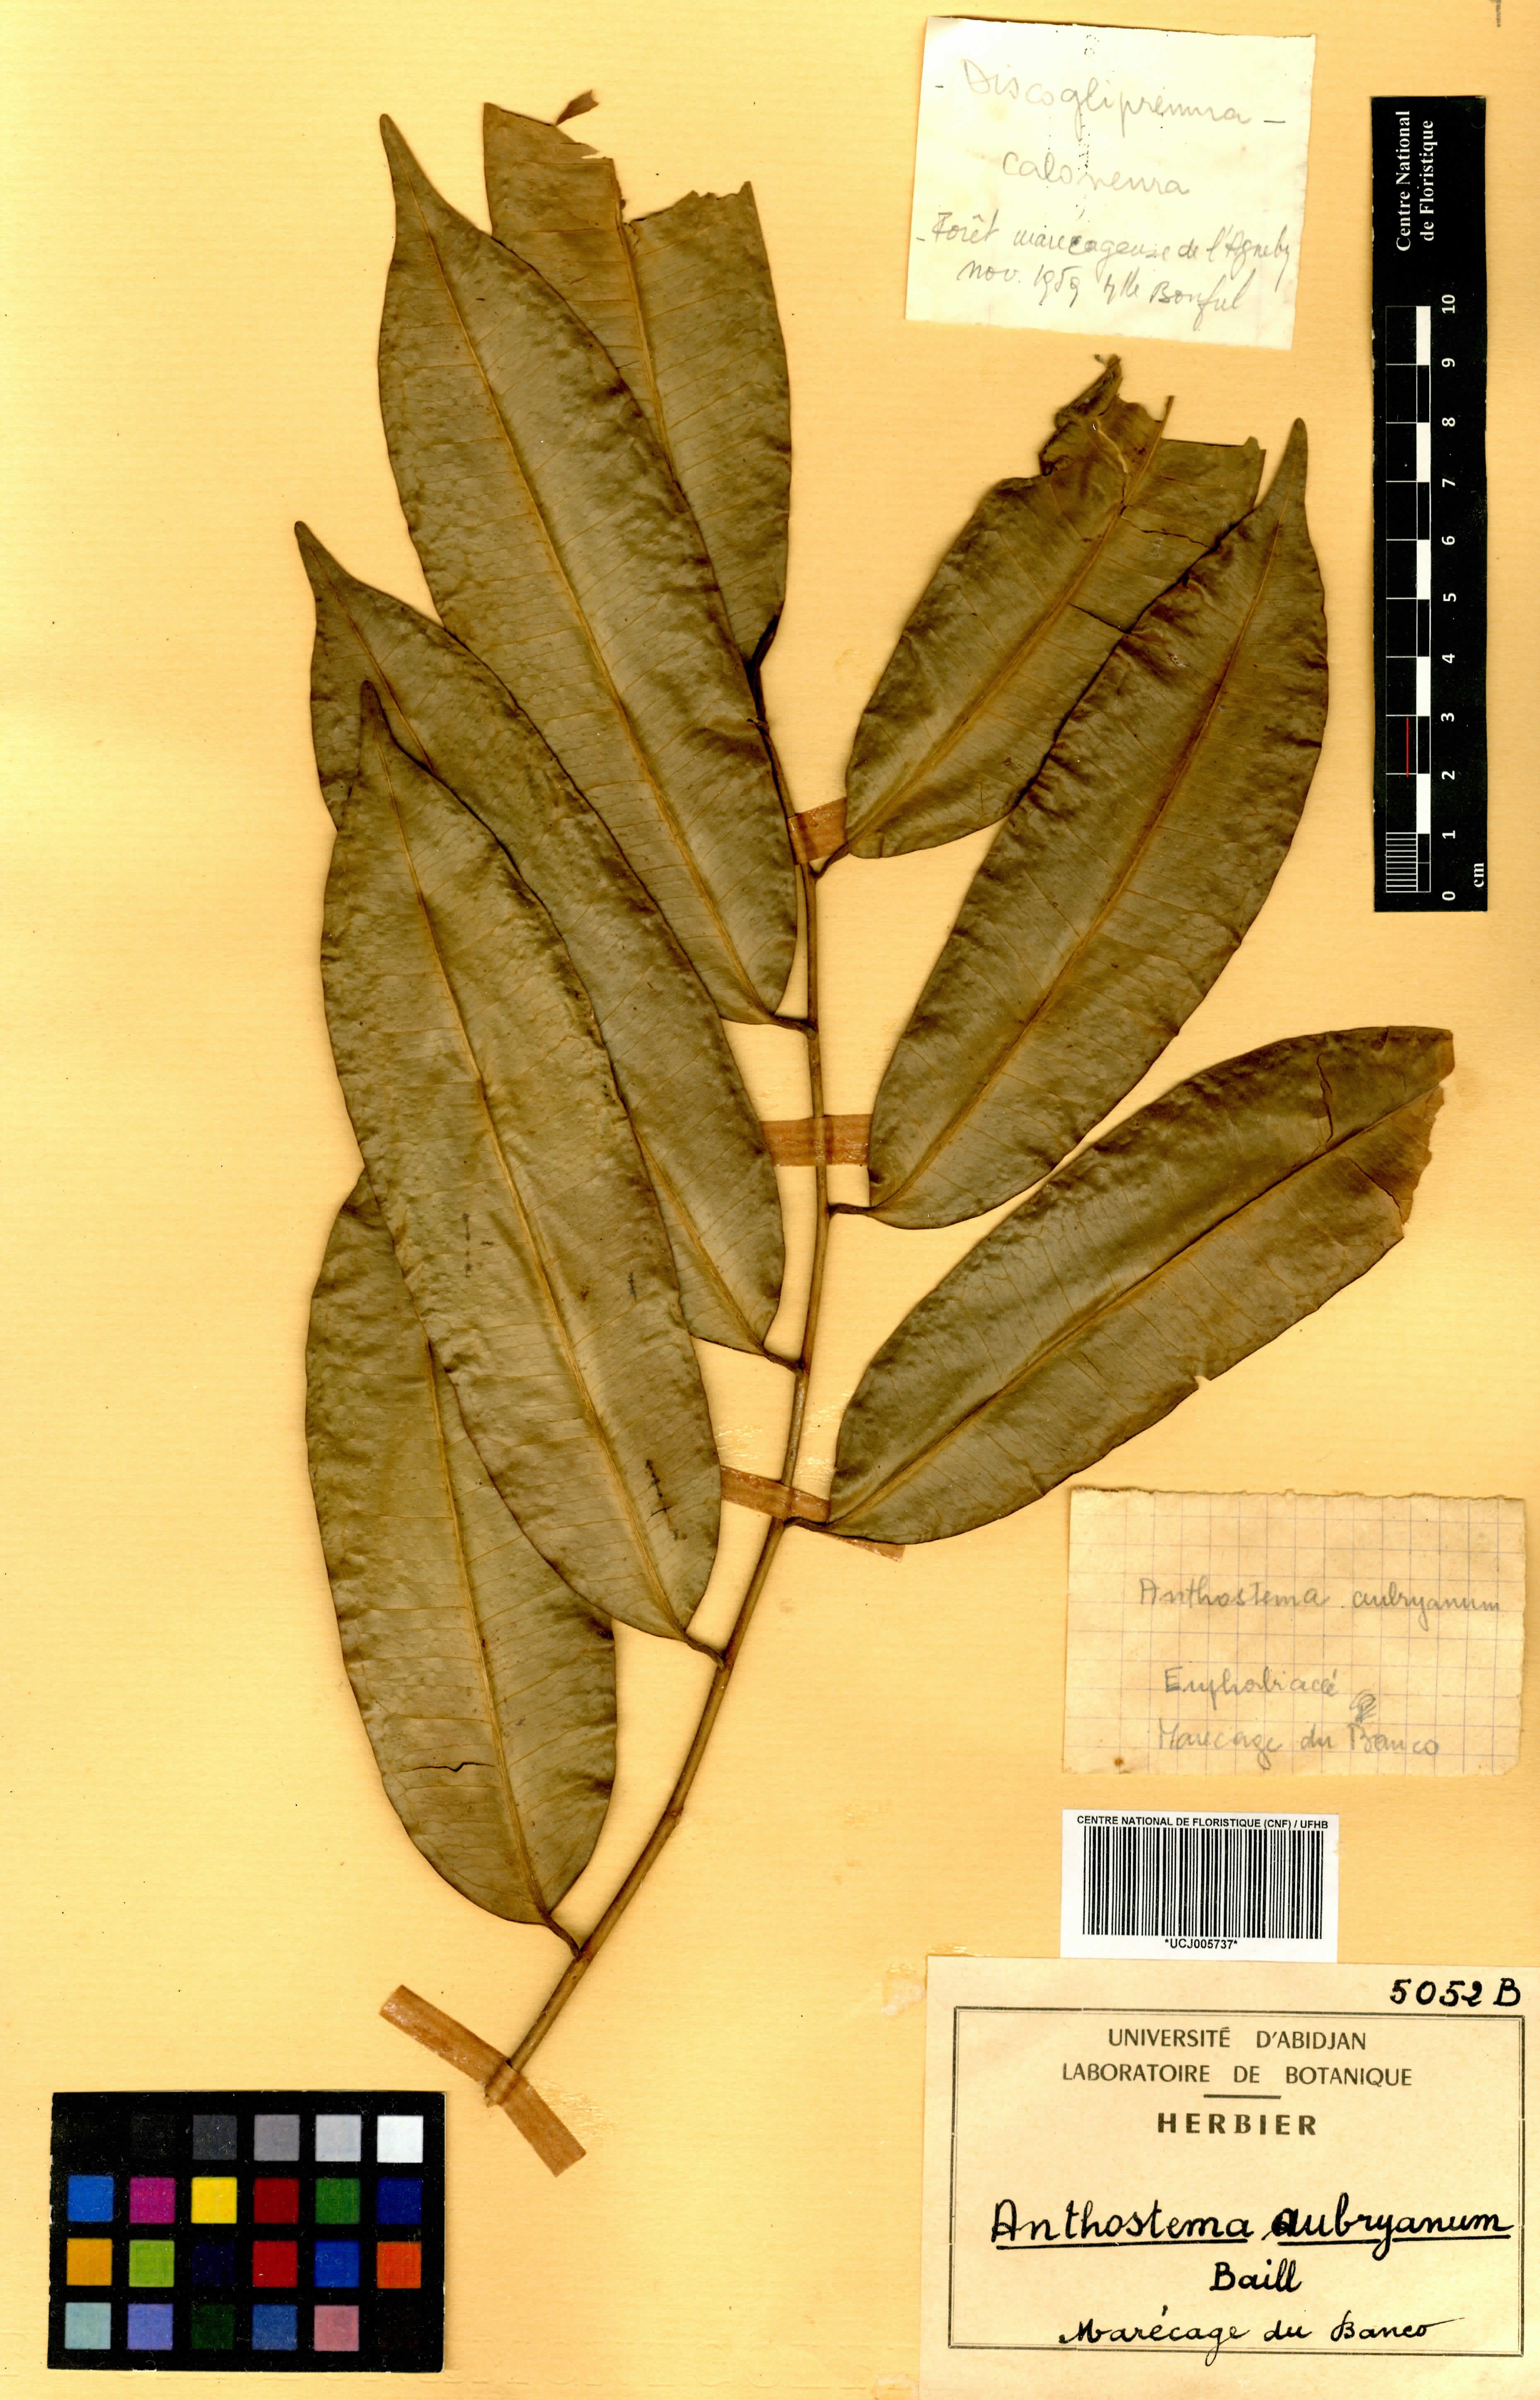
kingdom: Plantae
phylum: Tracheophyta
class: Magnoliopsida
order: Malpighiales
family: Euphorbiaceae
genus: Anthostema
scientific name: Anthostema aubryanum
